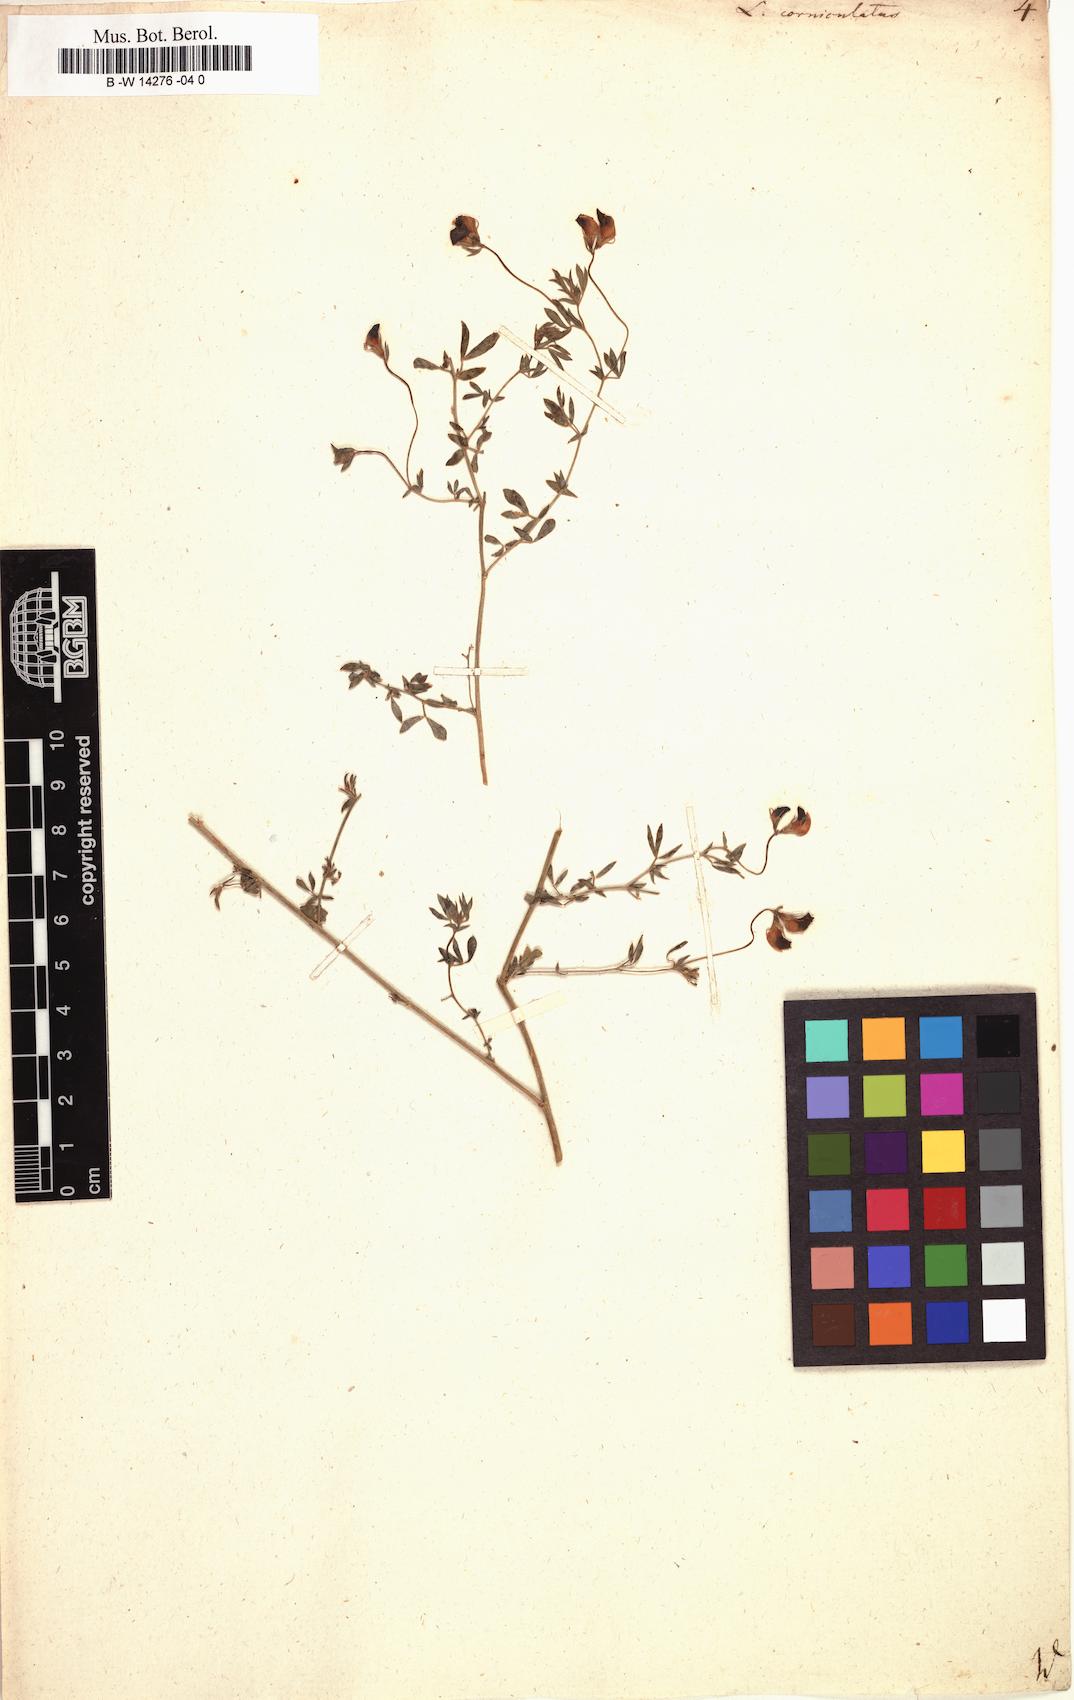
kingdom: Plantae
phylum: Tracheophyta
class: Magnoliopsida
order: Fabales
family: Fabaceae
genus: Lotus
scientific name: Lotus corniculatus
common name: Common bird's-foot-trefoil
